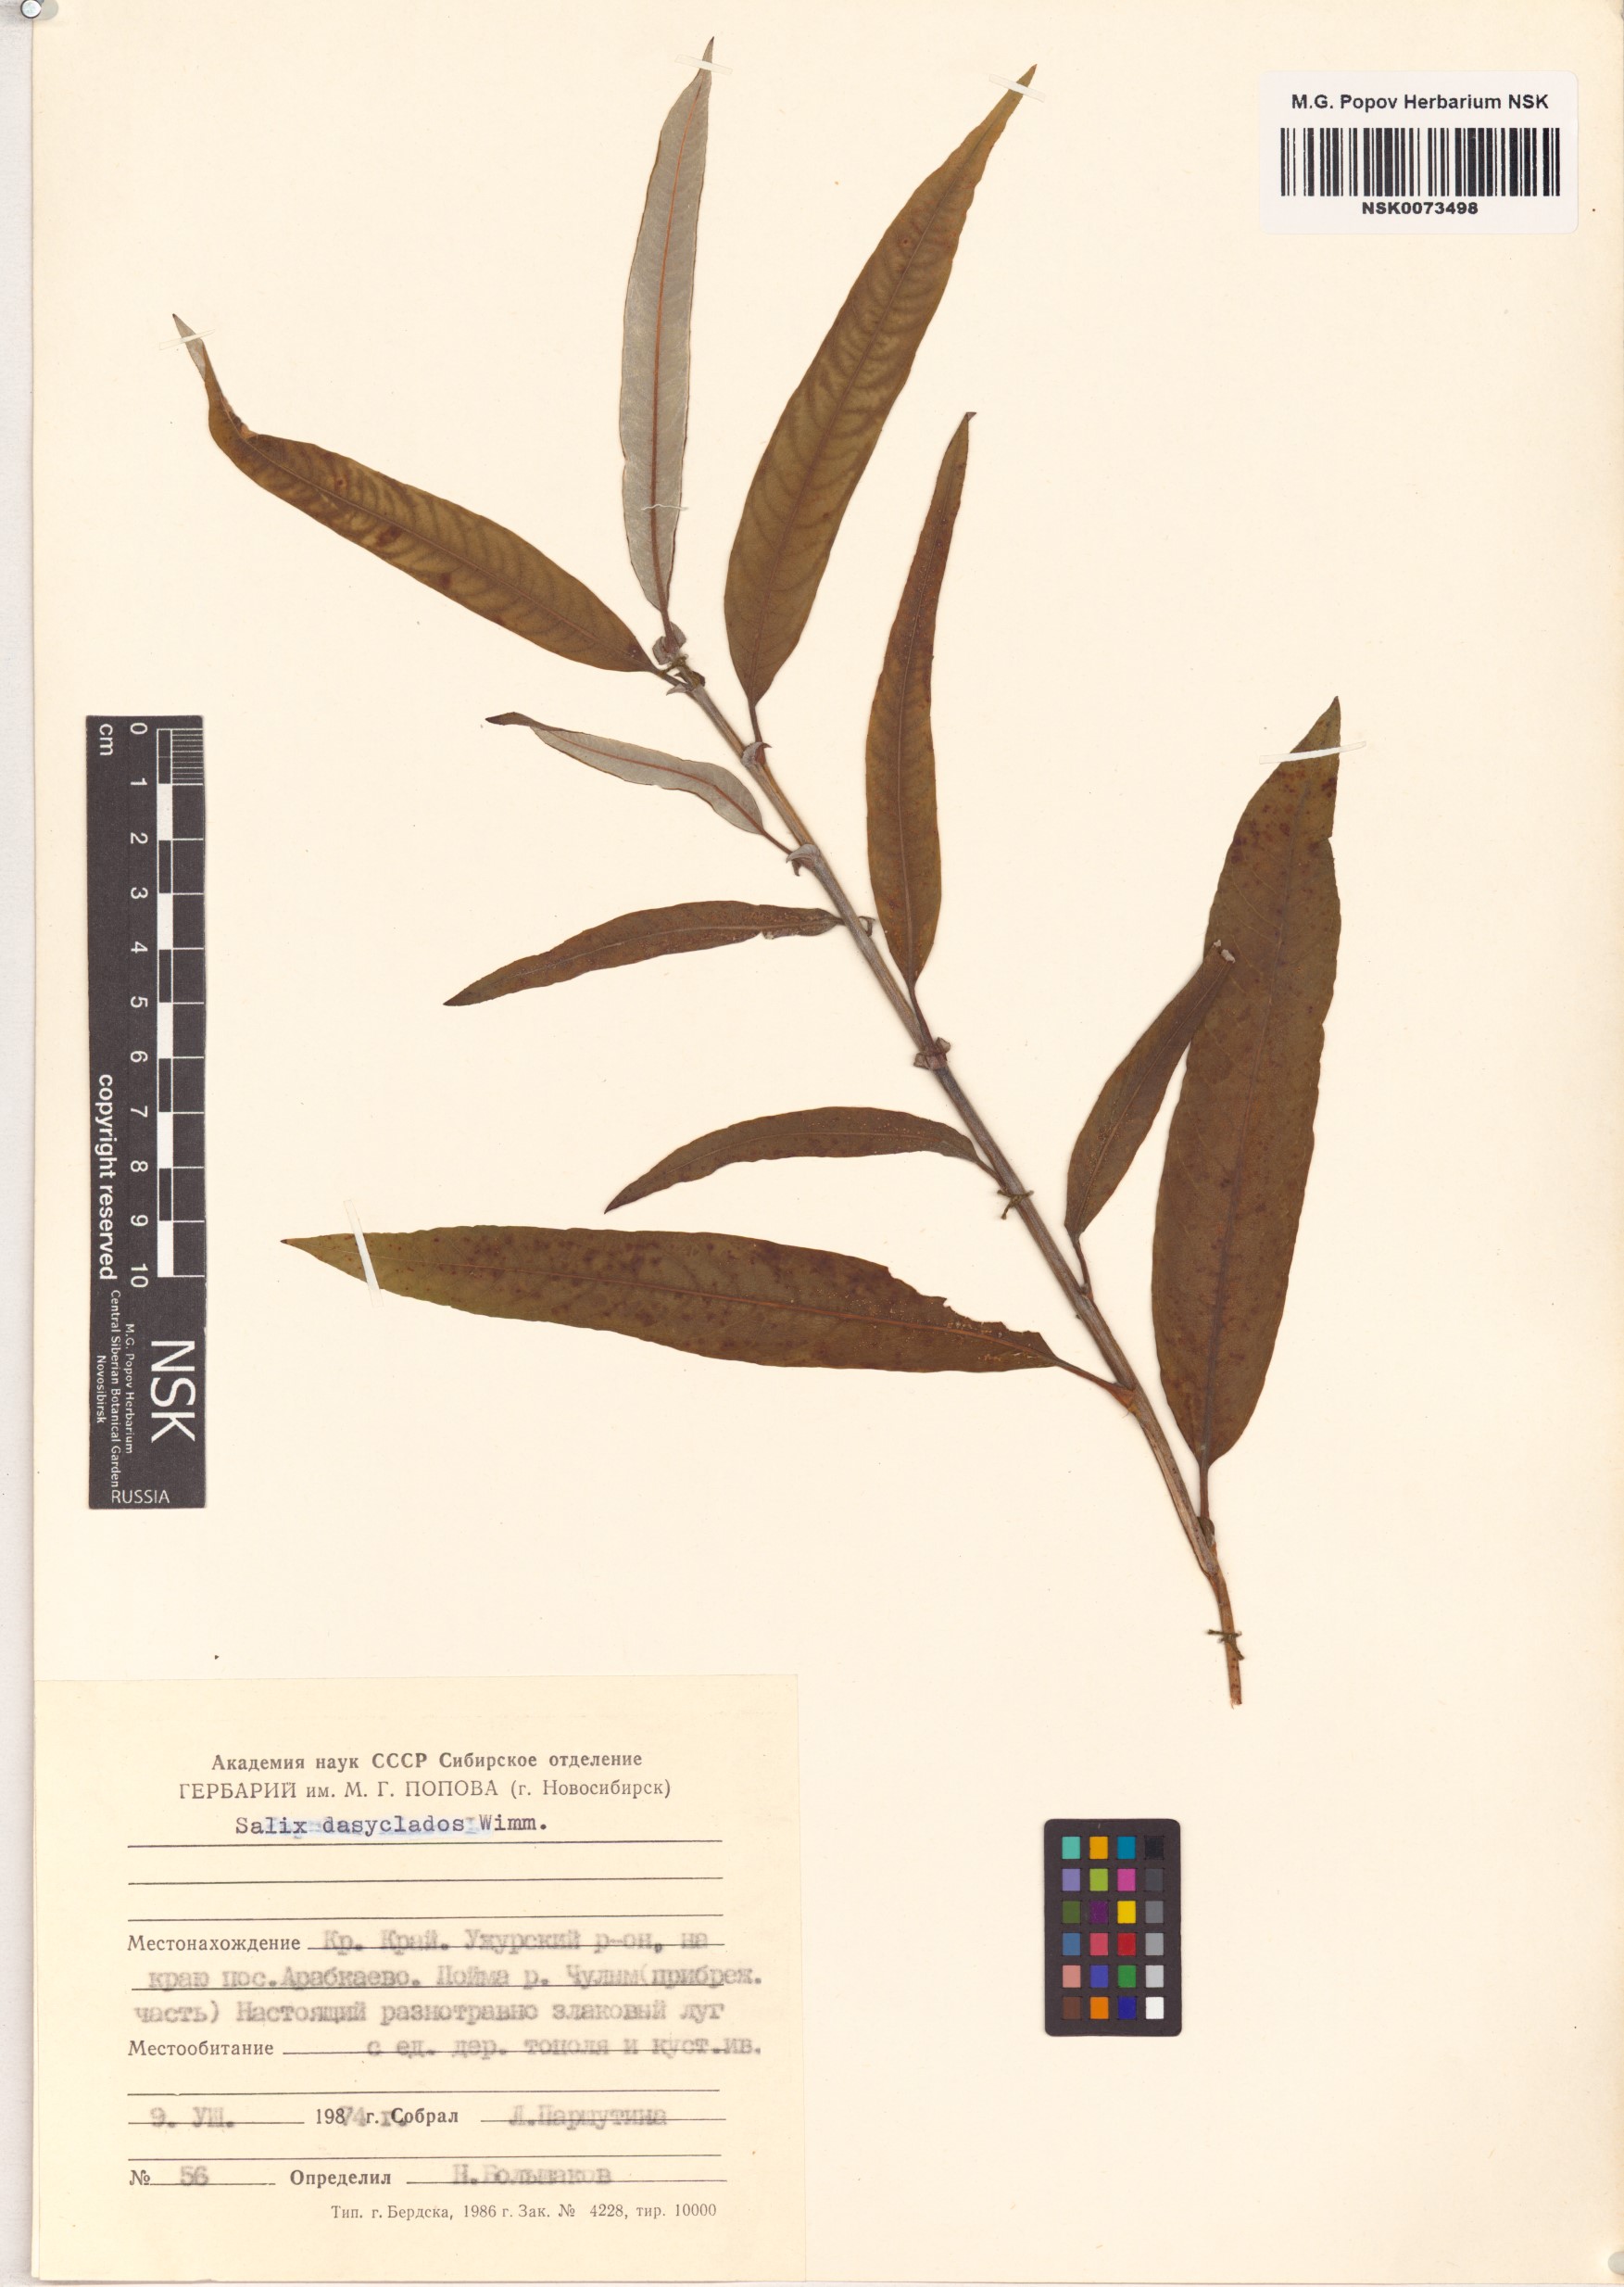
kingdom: Plantae
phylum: Tracheophyta
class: Magnoliopsida
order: Malpighiales
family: Salicaceae
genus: Salix
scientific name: Salix gmelinii
